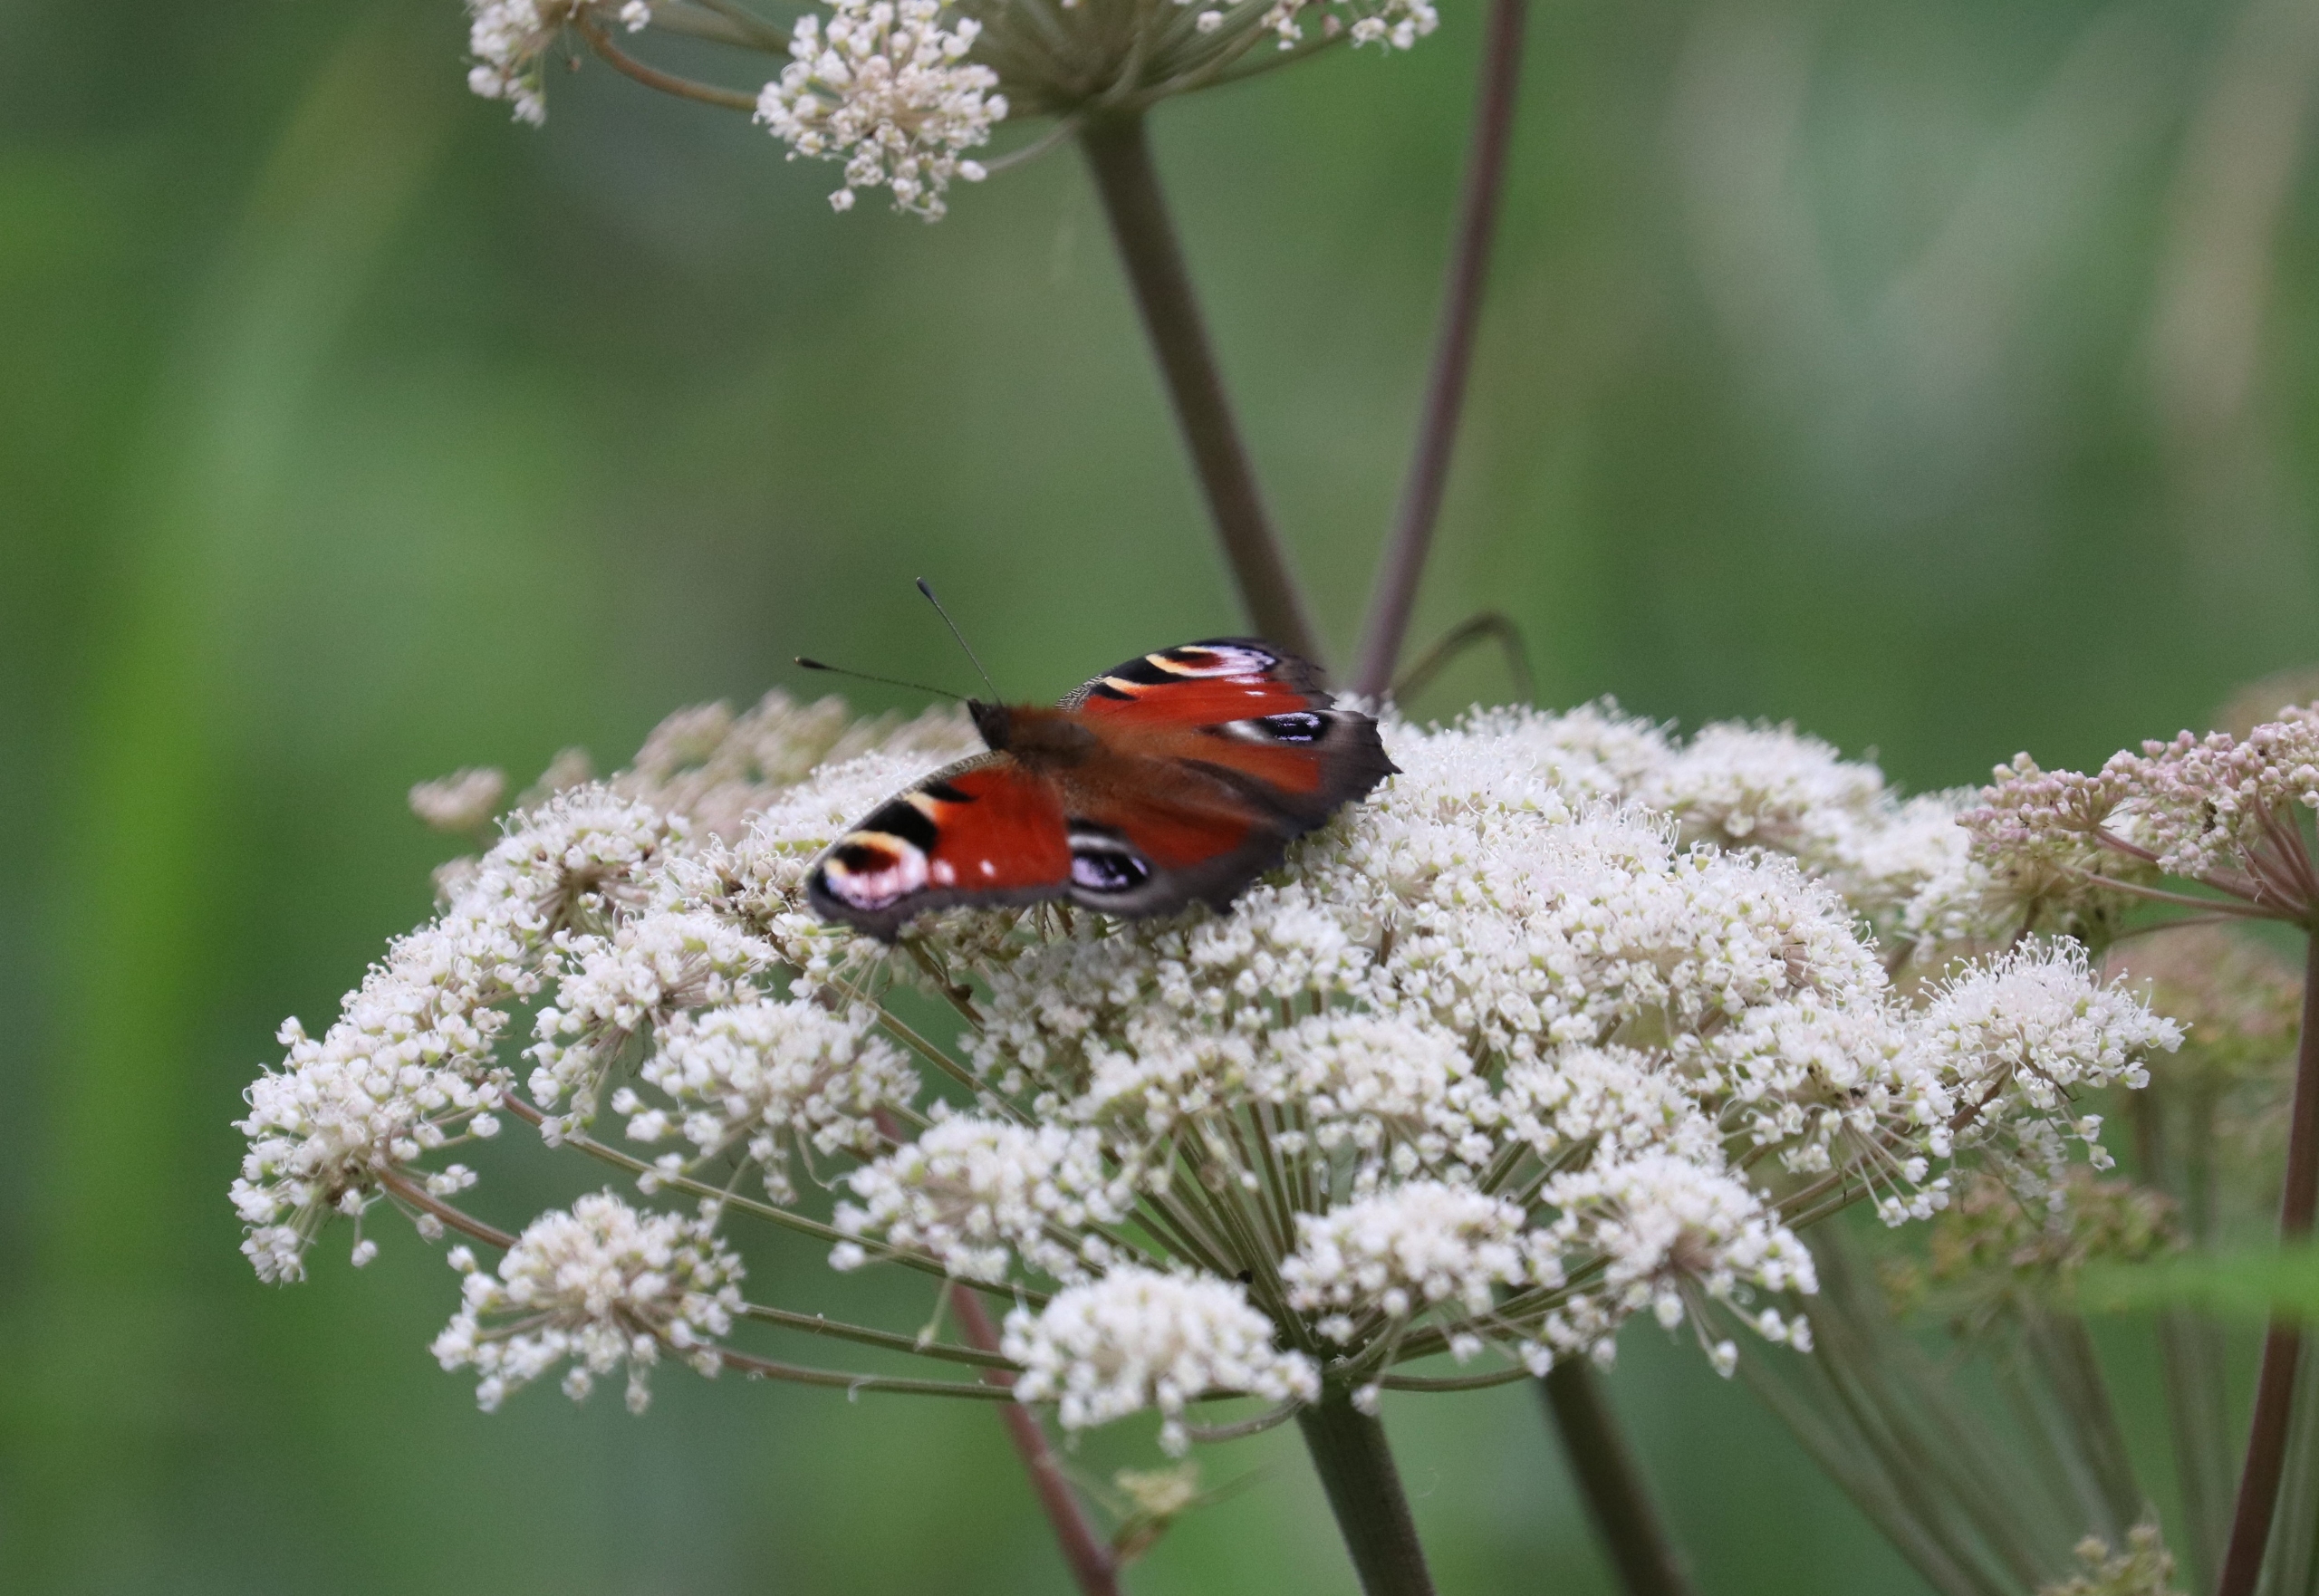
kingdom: Animalia
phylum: Arthropoda
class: Insecta
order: Lepidoptera
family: Nymphalidae
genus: Aglais
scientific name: Aglais io
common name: Dagpåfugleøje
